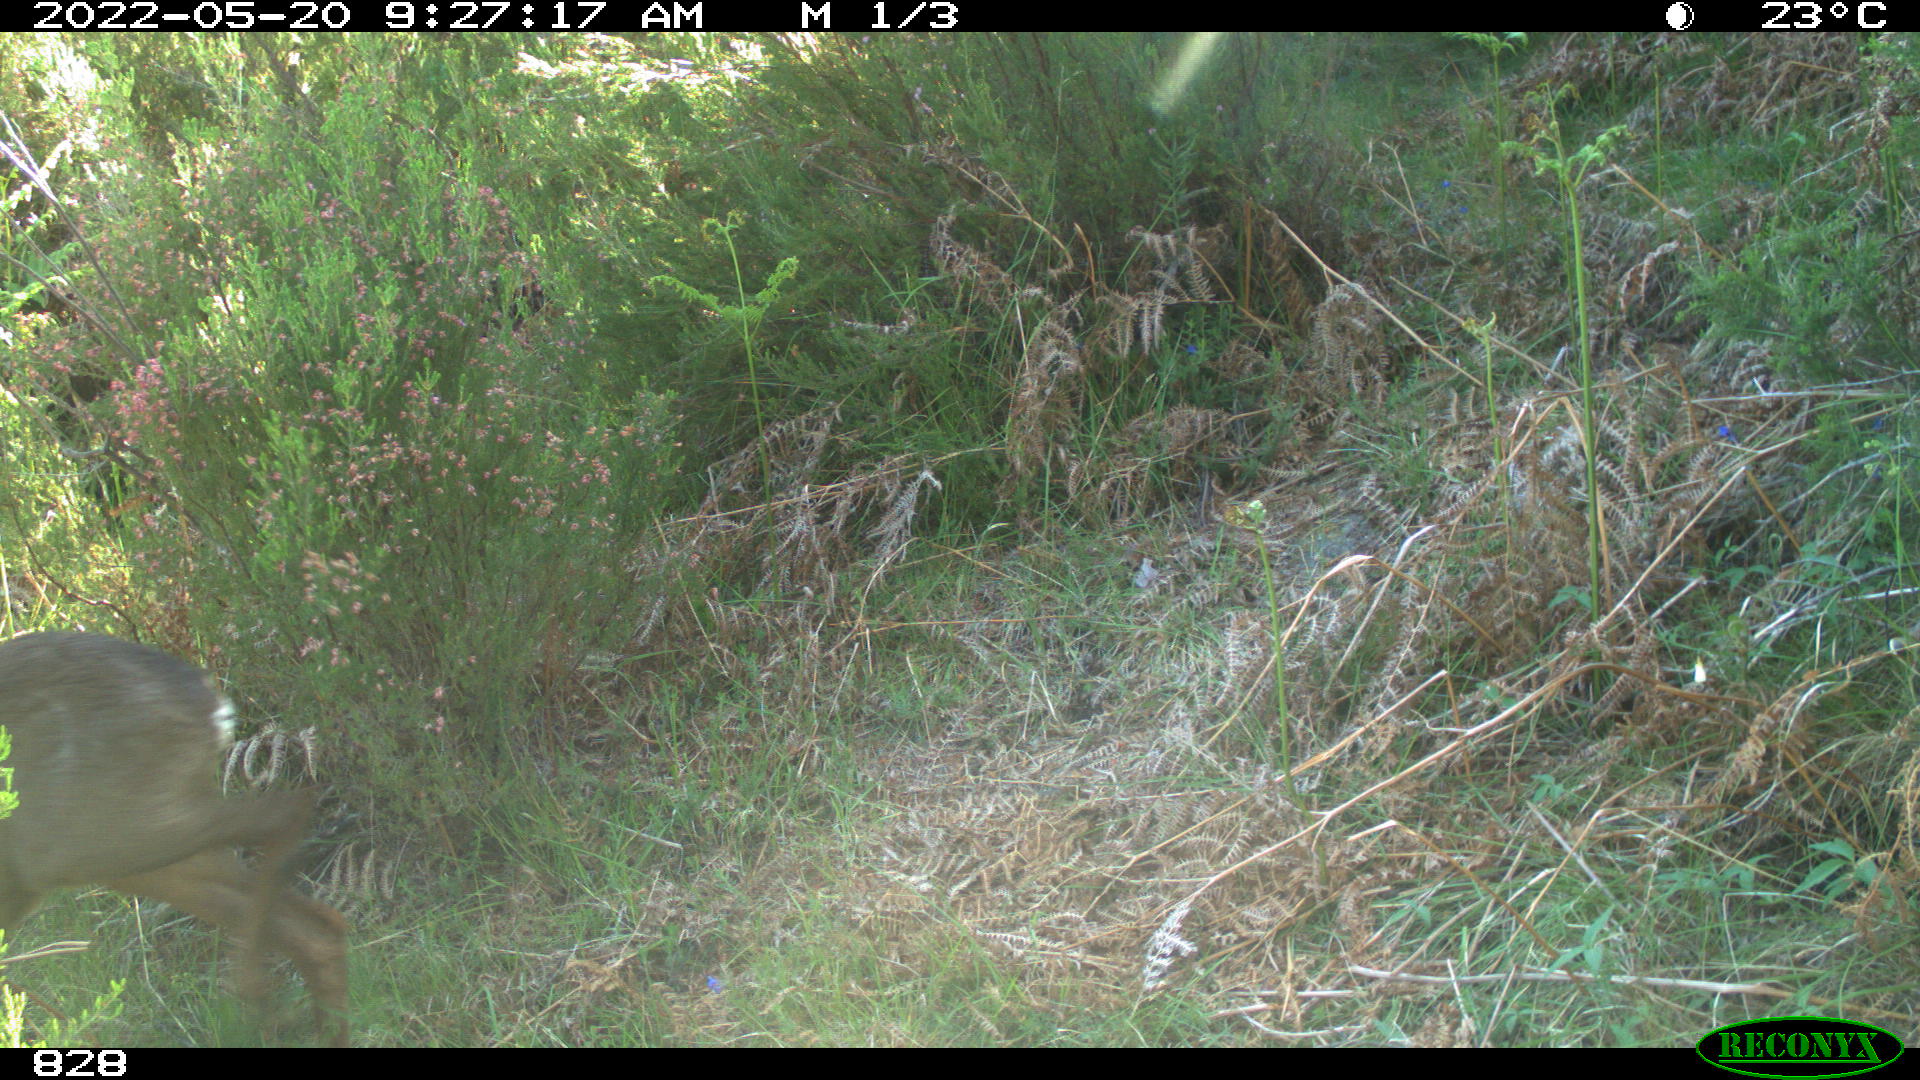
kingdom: Animalia
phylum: Chordata
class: Mammalia
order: Artiodactyla
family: Cervidae
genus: Capreolus
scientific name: Capreolus capreolus
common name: Western roe deer
